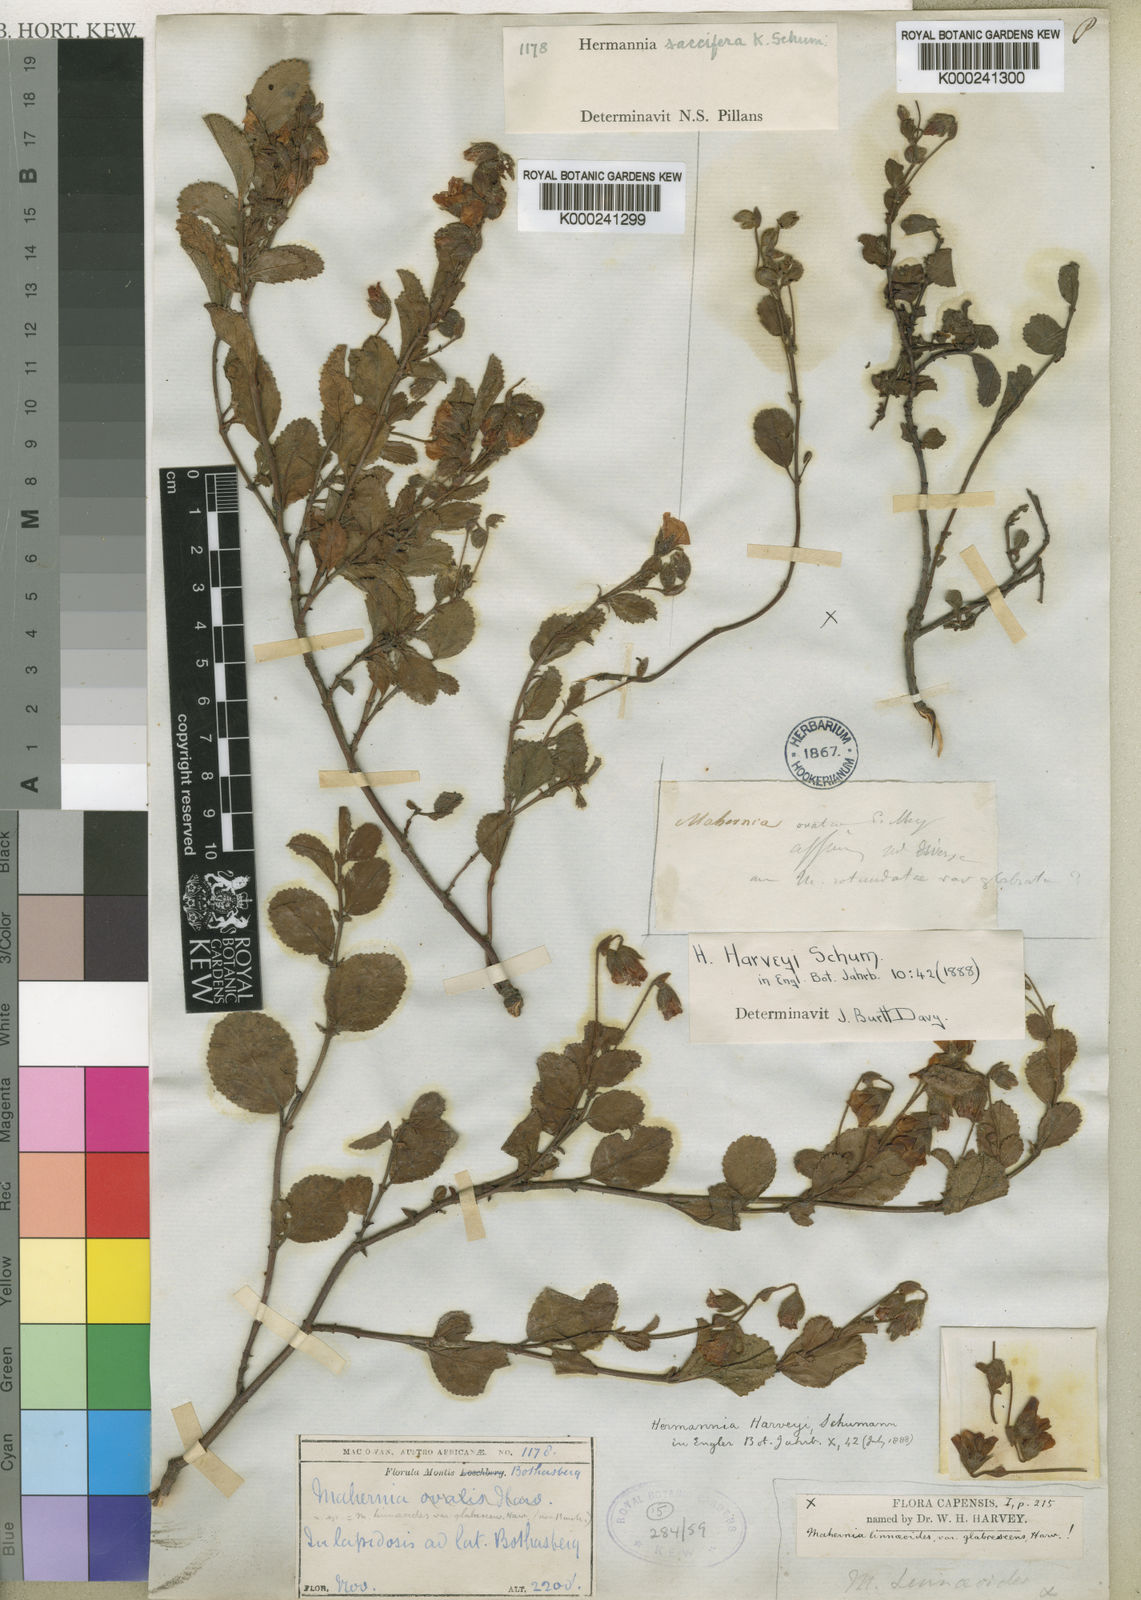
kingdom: Plantae
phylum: Tracheophyta
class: Magnoliopsida
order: Malvales
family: Malvaceae
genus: Hermannia
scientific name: Hermannia saccifera
